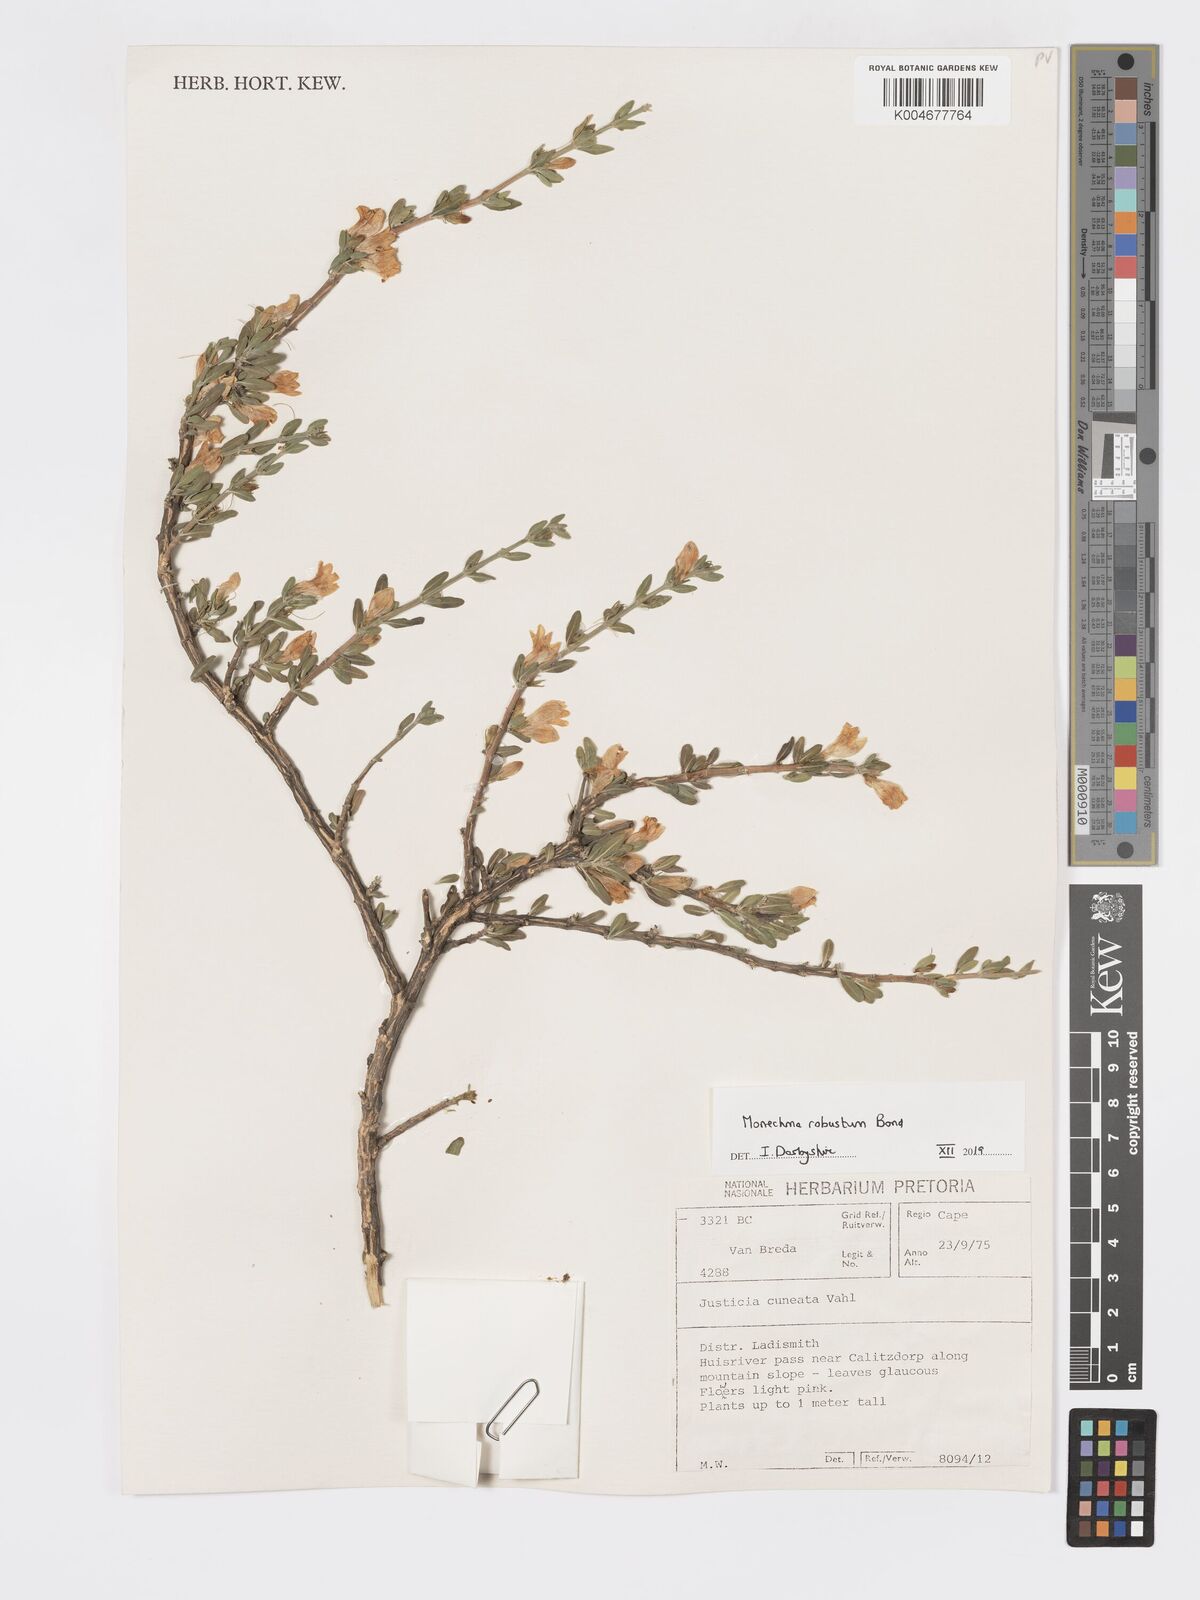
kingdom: Plantae
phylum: Tracheophyta
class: Magnoliopsida
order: Lamiales
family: Acanthaceae
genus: Pogonospermum
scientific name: Pogonospermum
